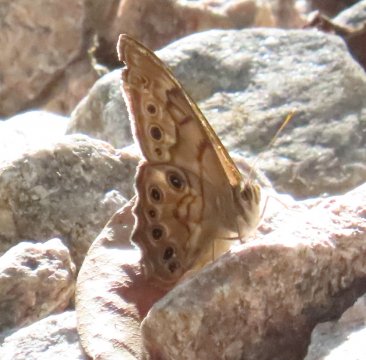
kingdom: Animalia
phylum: Arthropoda
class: Insecta
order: Lepidoptera
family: Nymphalidae
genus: Lethe
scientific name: Lethe creola
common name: Creole Pearly-Eye
